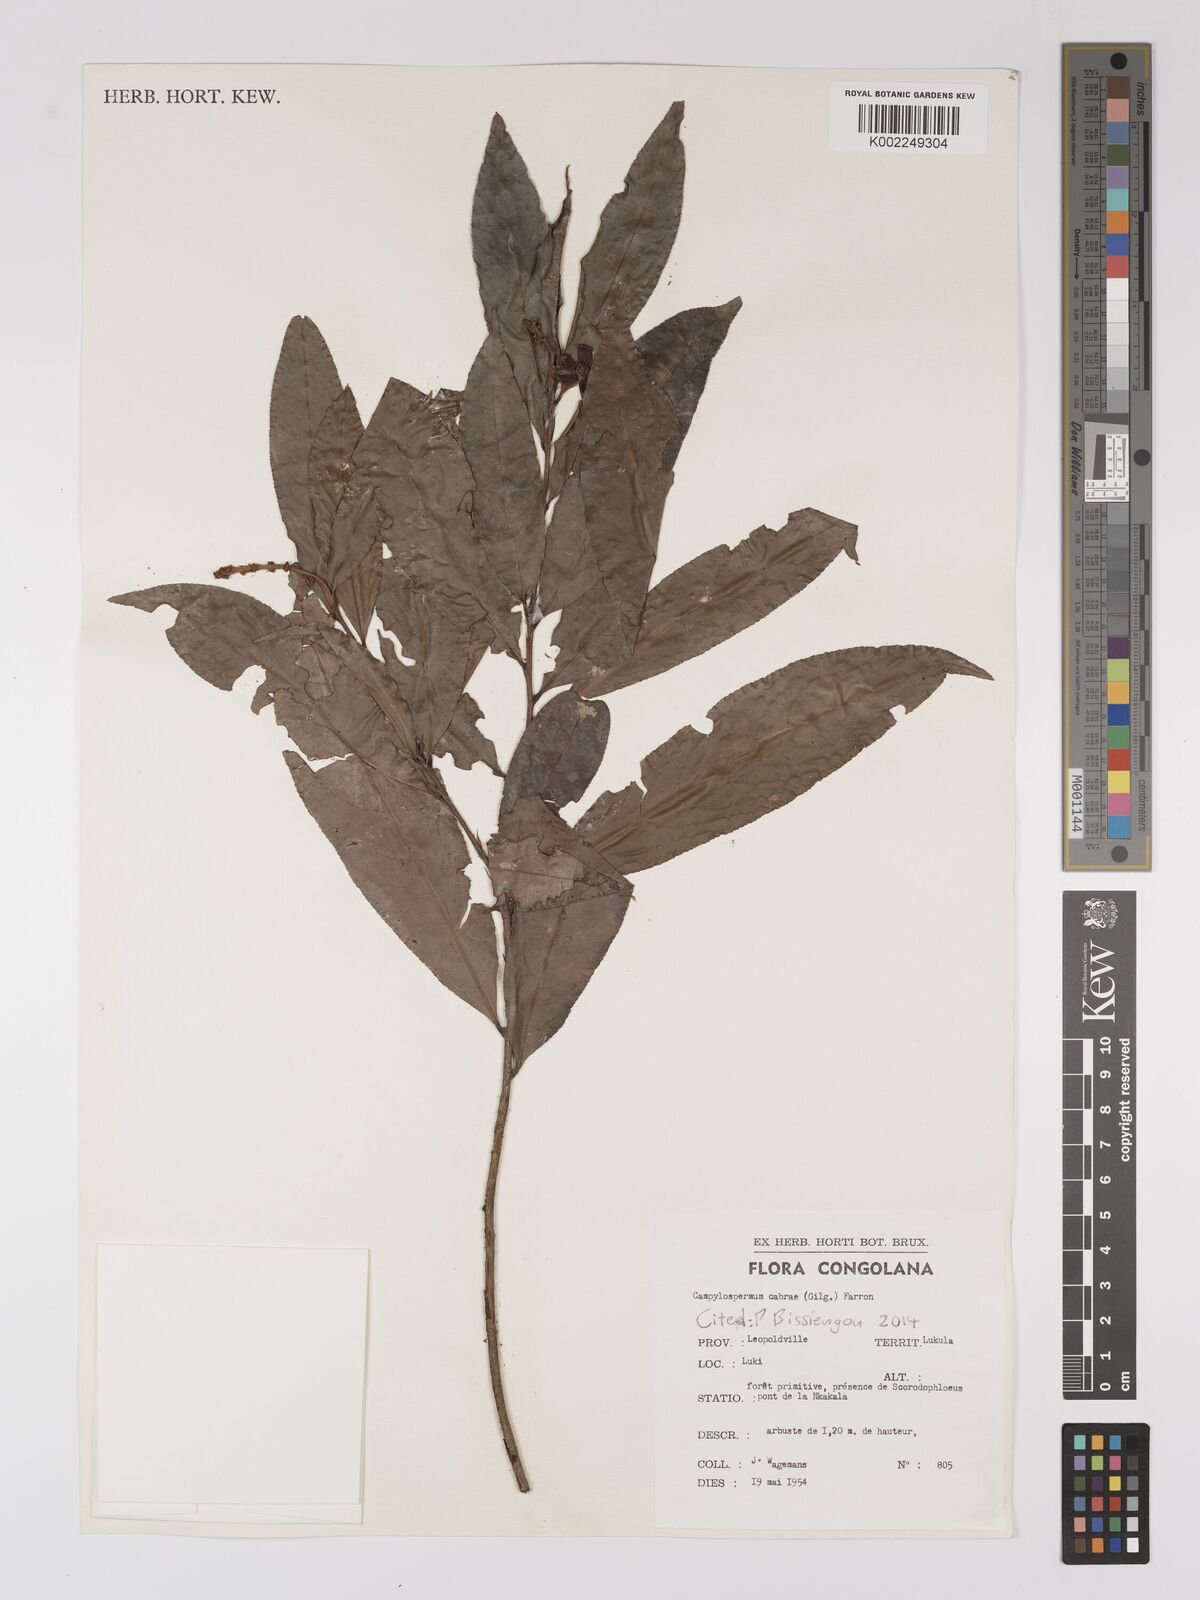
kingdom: Plantae
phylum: Tracheophyta
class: Magnoliopsida
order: Malpighiales
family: Ochnaceae
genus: Campylospermum
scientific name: Campylospermum cabrae
